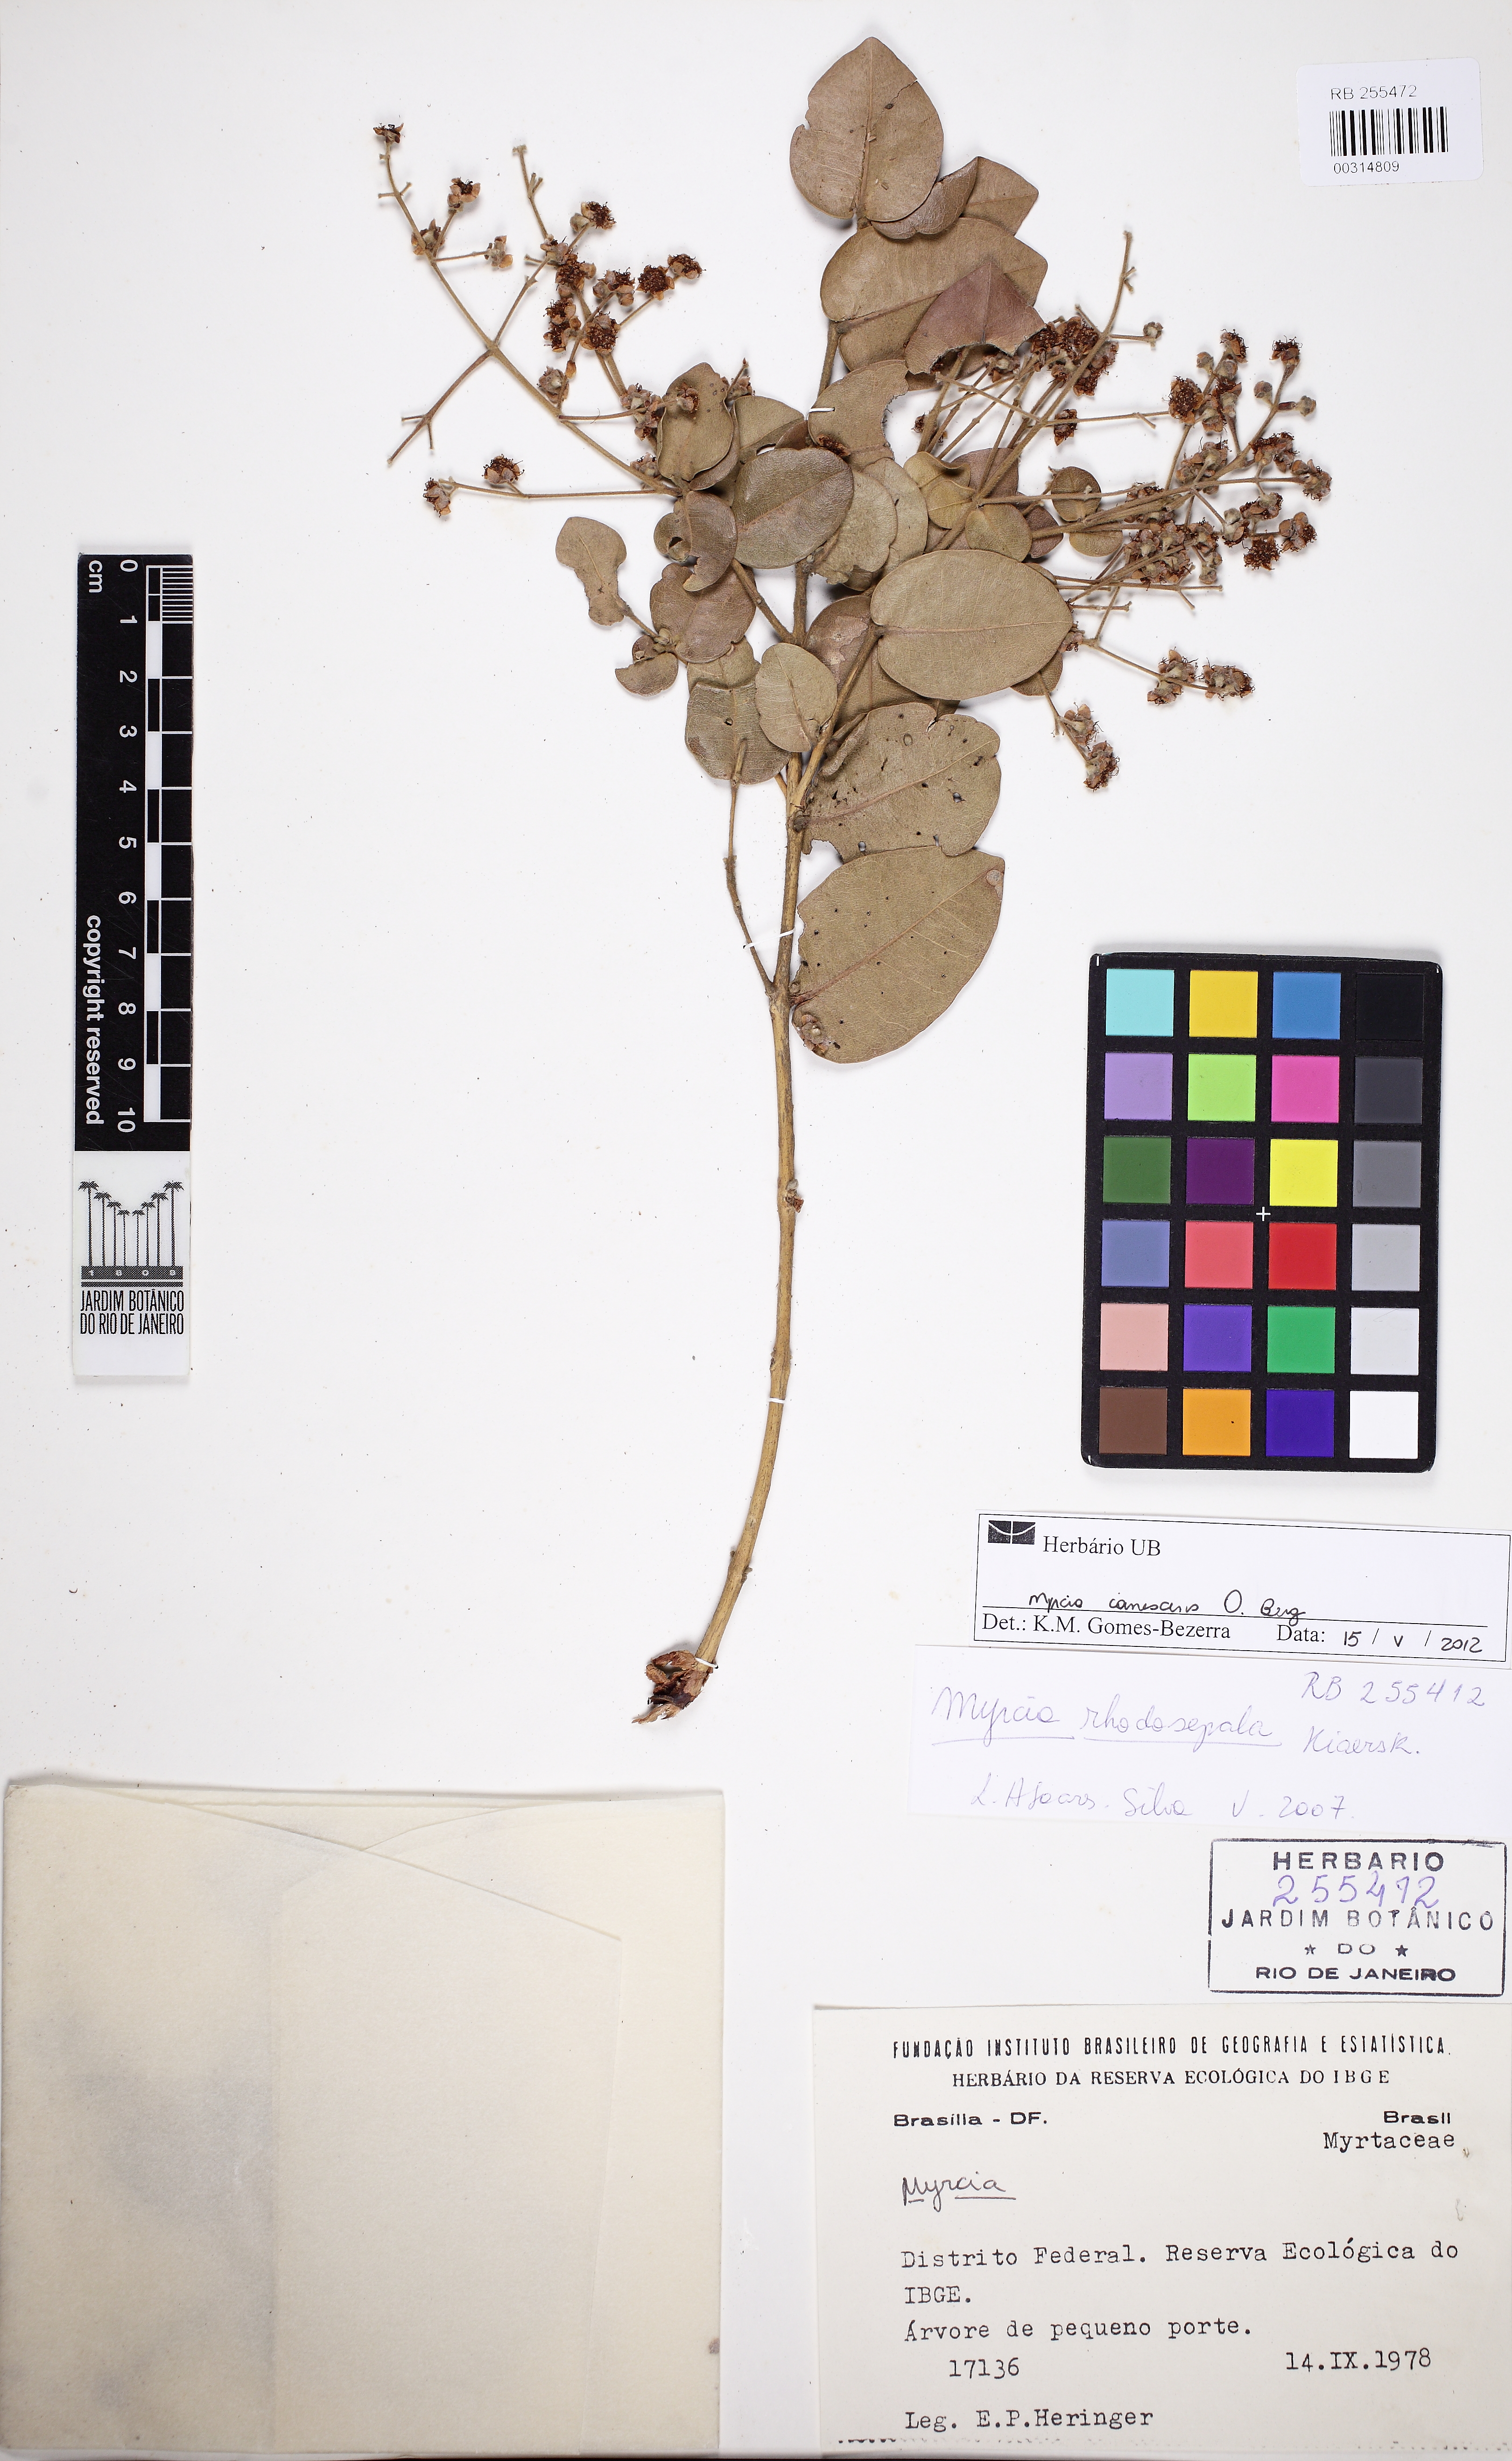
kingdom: Plantae
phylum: Tracheophyta
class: Magnoliopsida
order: Myrtales
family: Myrtaceae
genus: Myrcia
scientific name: Myrcia tomentosa
